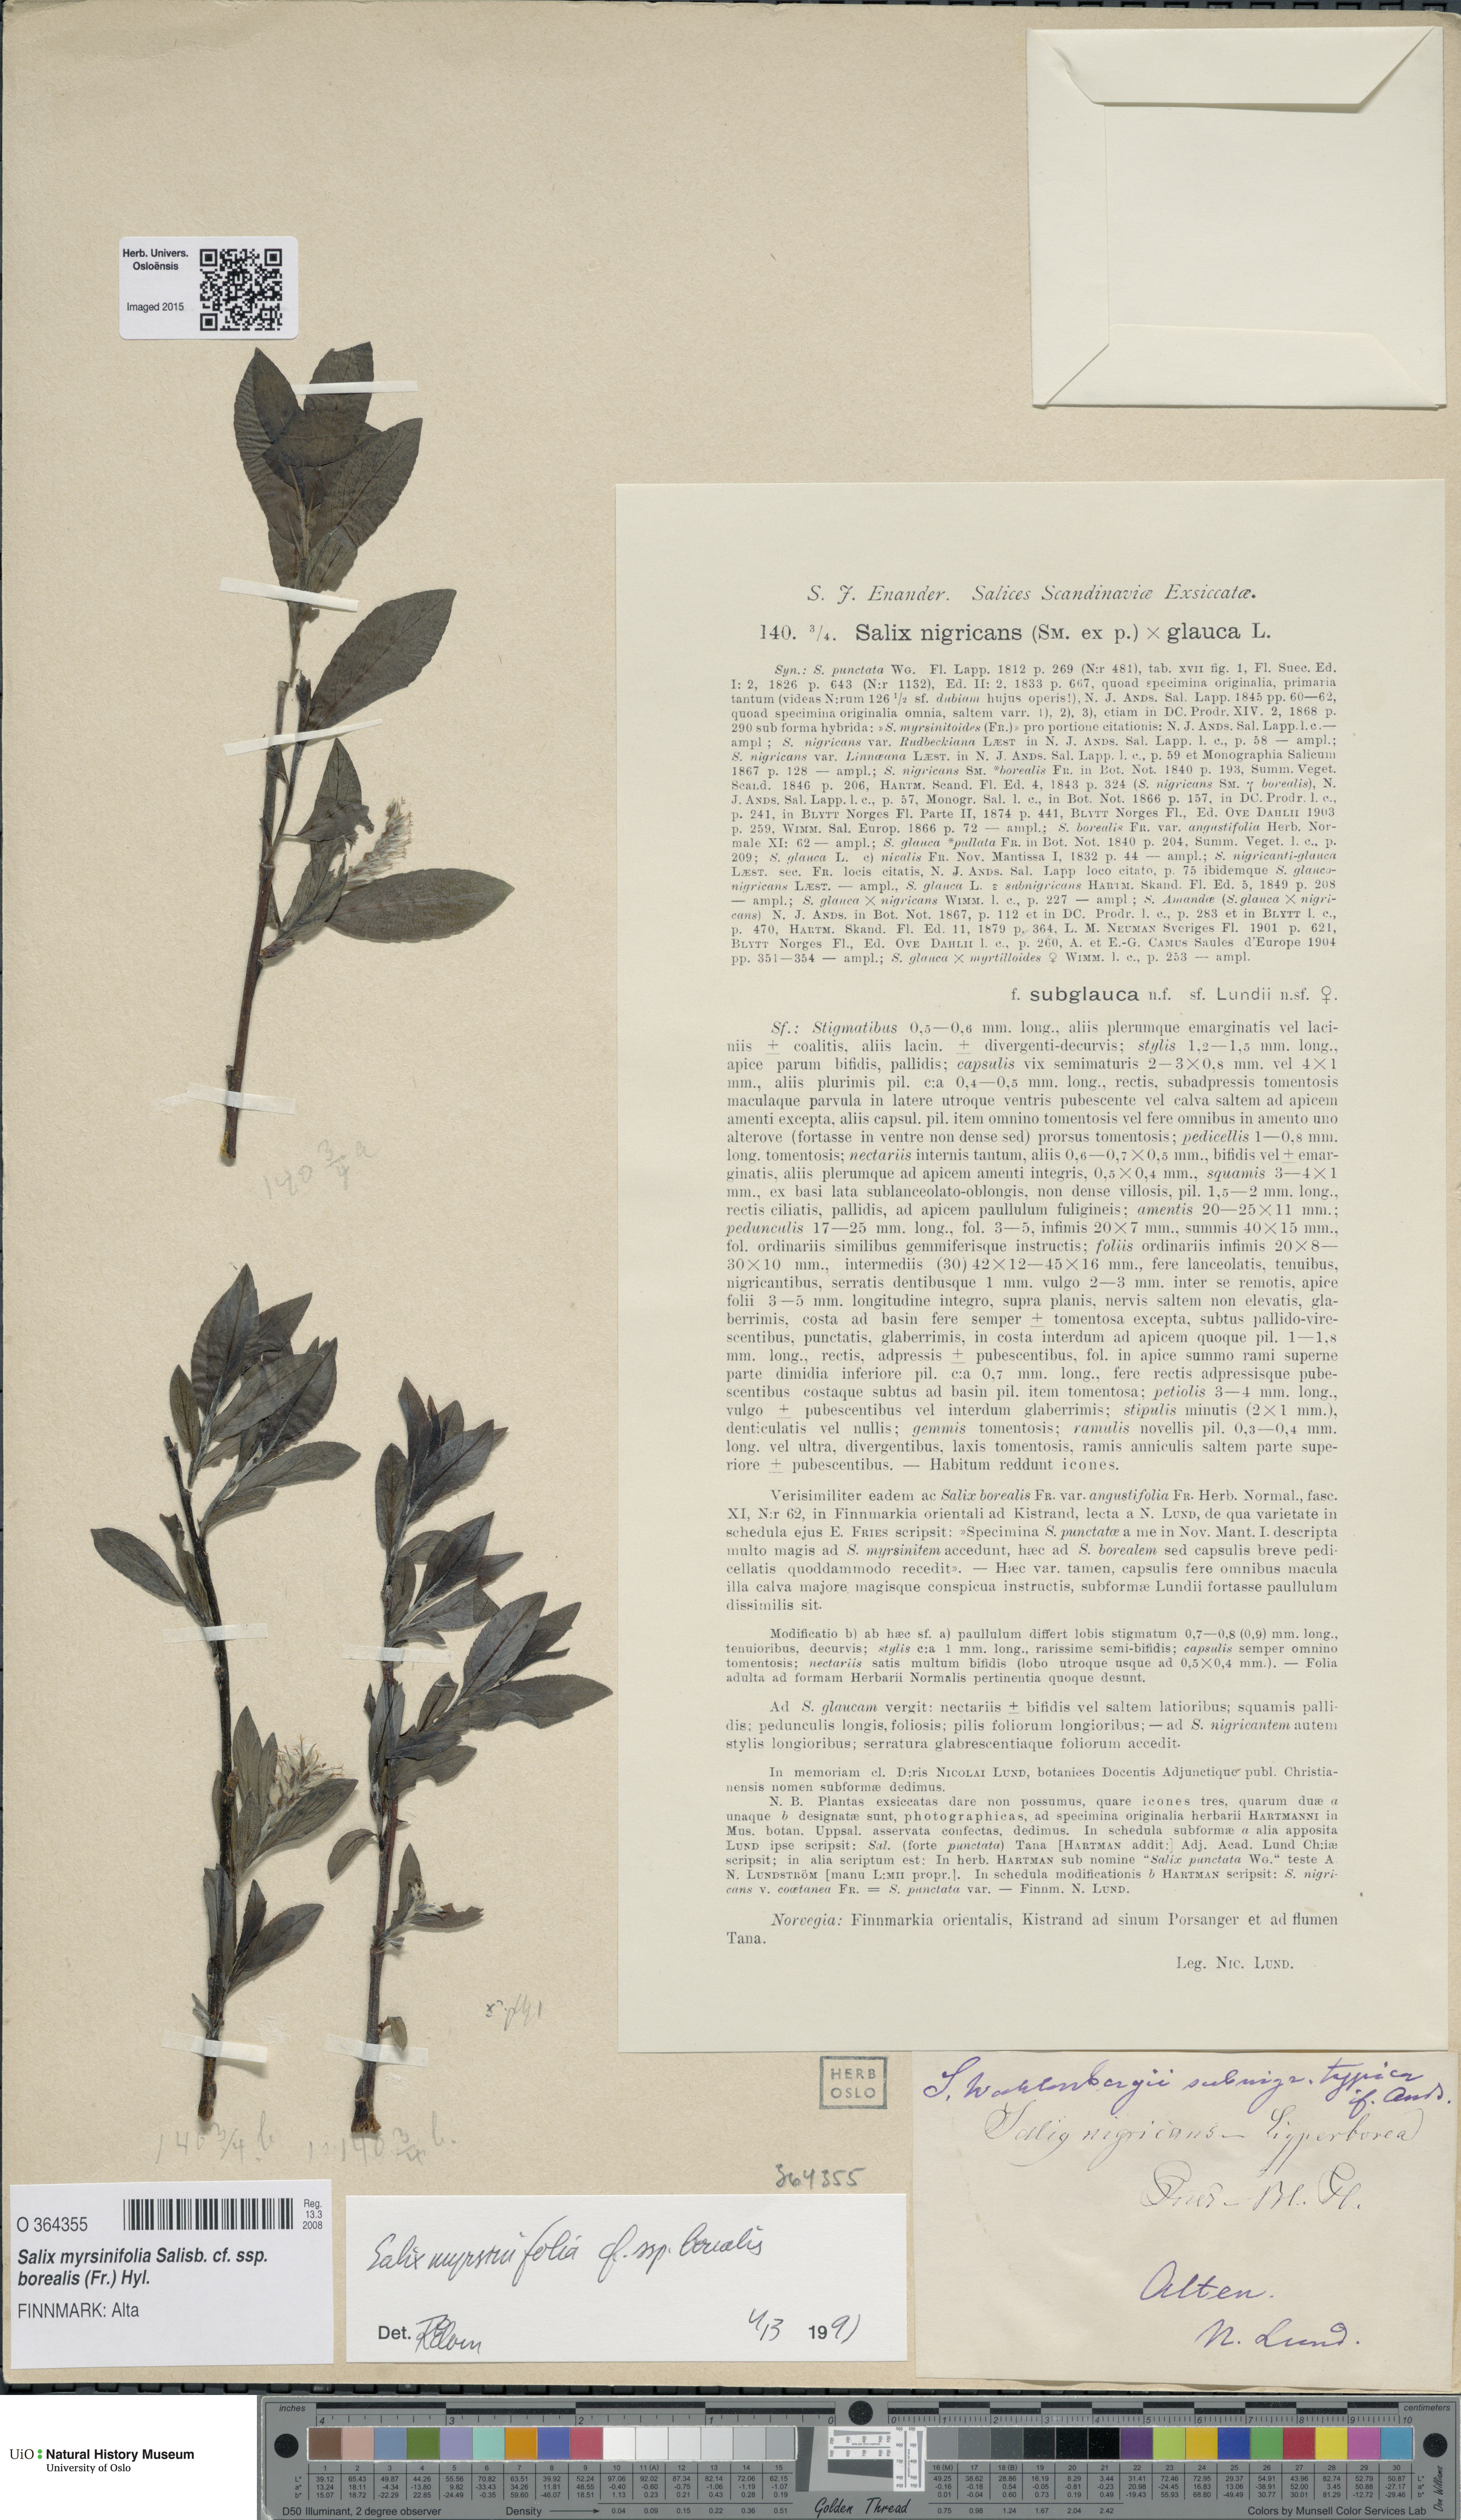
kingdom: Plantae
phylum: Tracheophyta
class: Magnoliopsida
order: Malpighiales
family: Salicaceae
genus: Salix
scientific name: Salix myrsinifolia
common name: Dark-leaved willow
